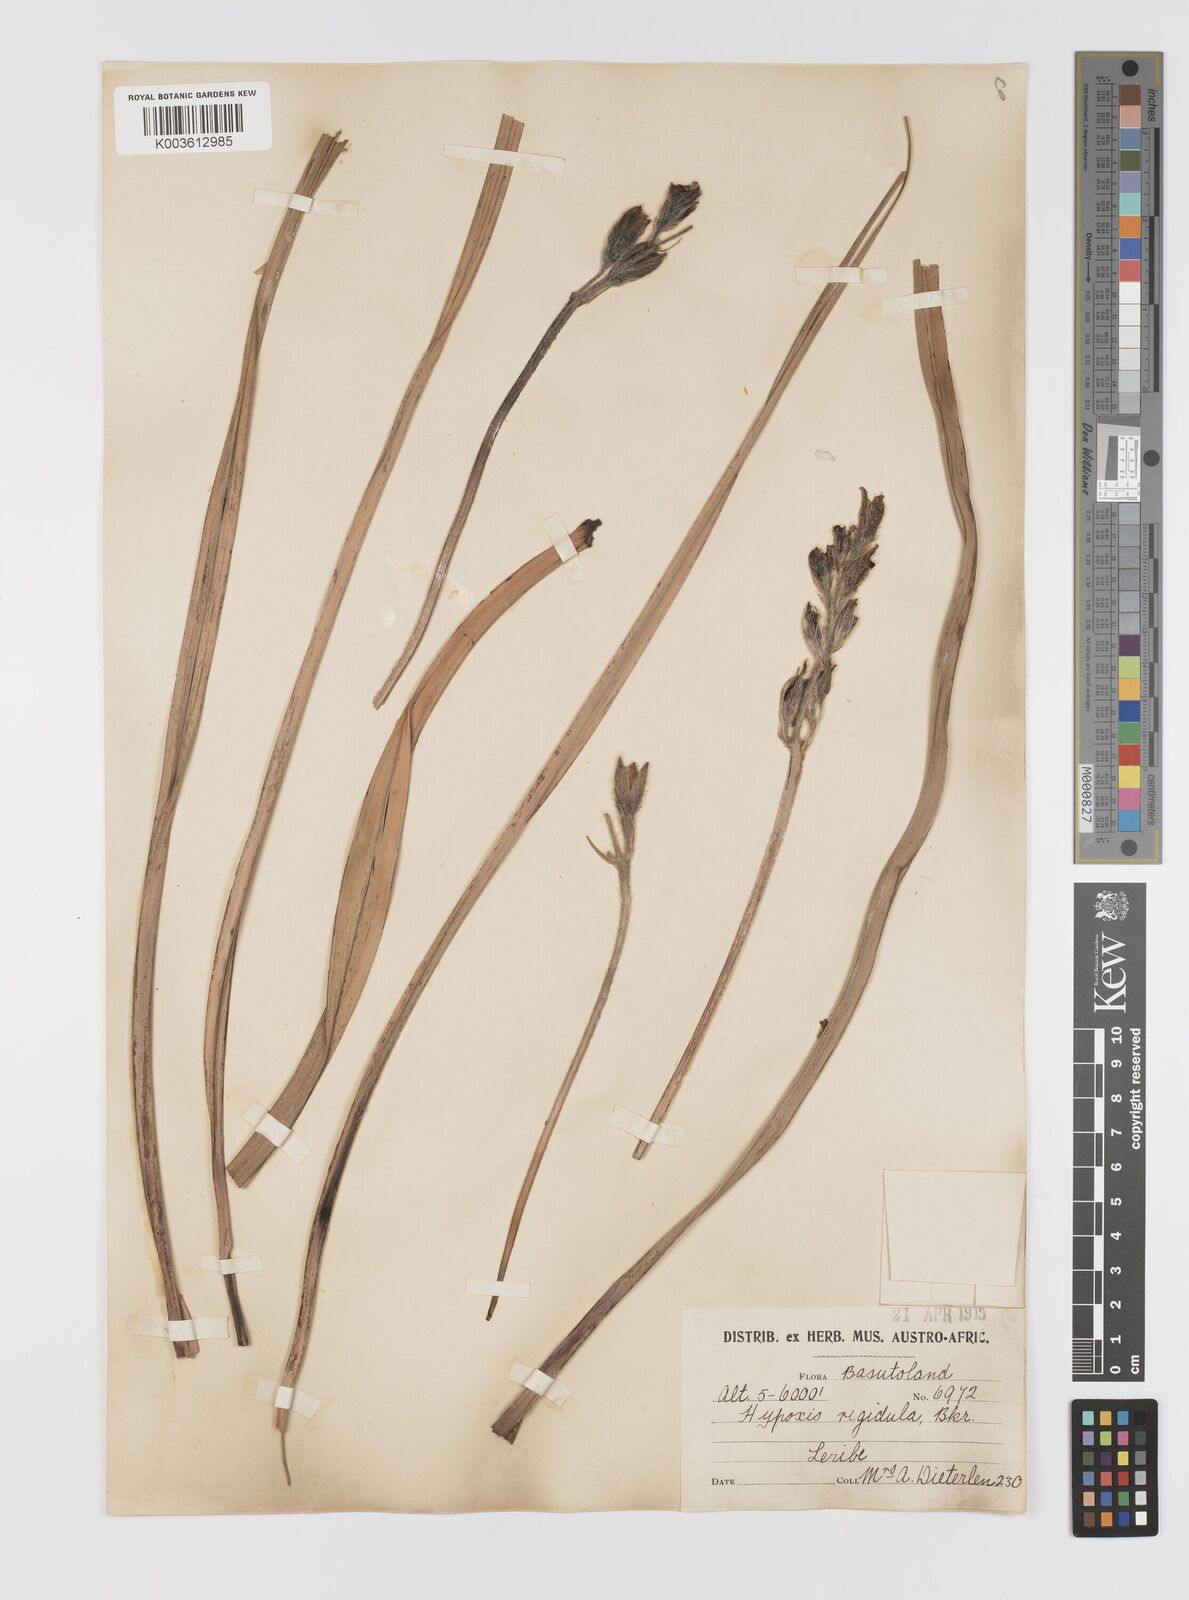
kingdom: Plantae
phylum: Tracheophyta
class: Liliopsida
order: Asparagales
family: Hypoxidaceae
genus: Hypoxis
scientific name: Hypoxis rigidula
